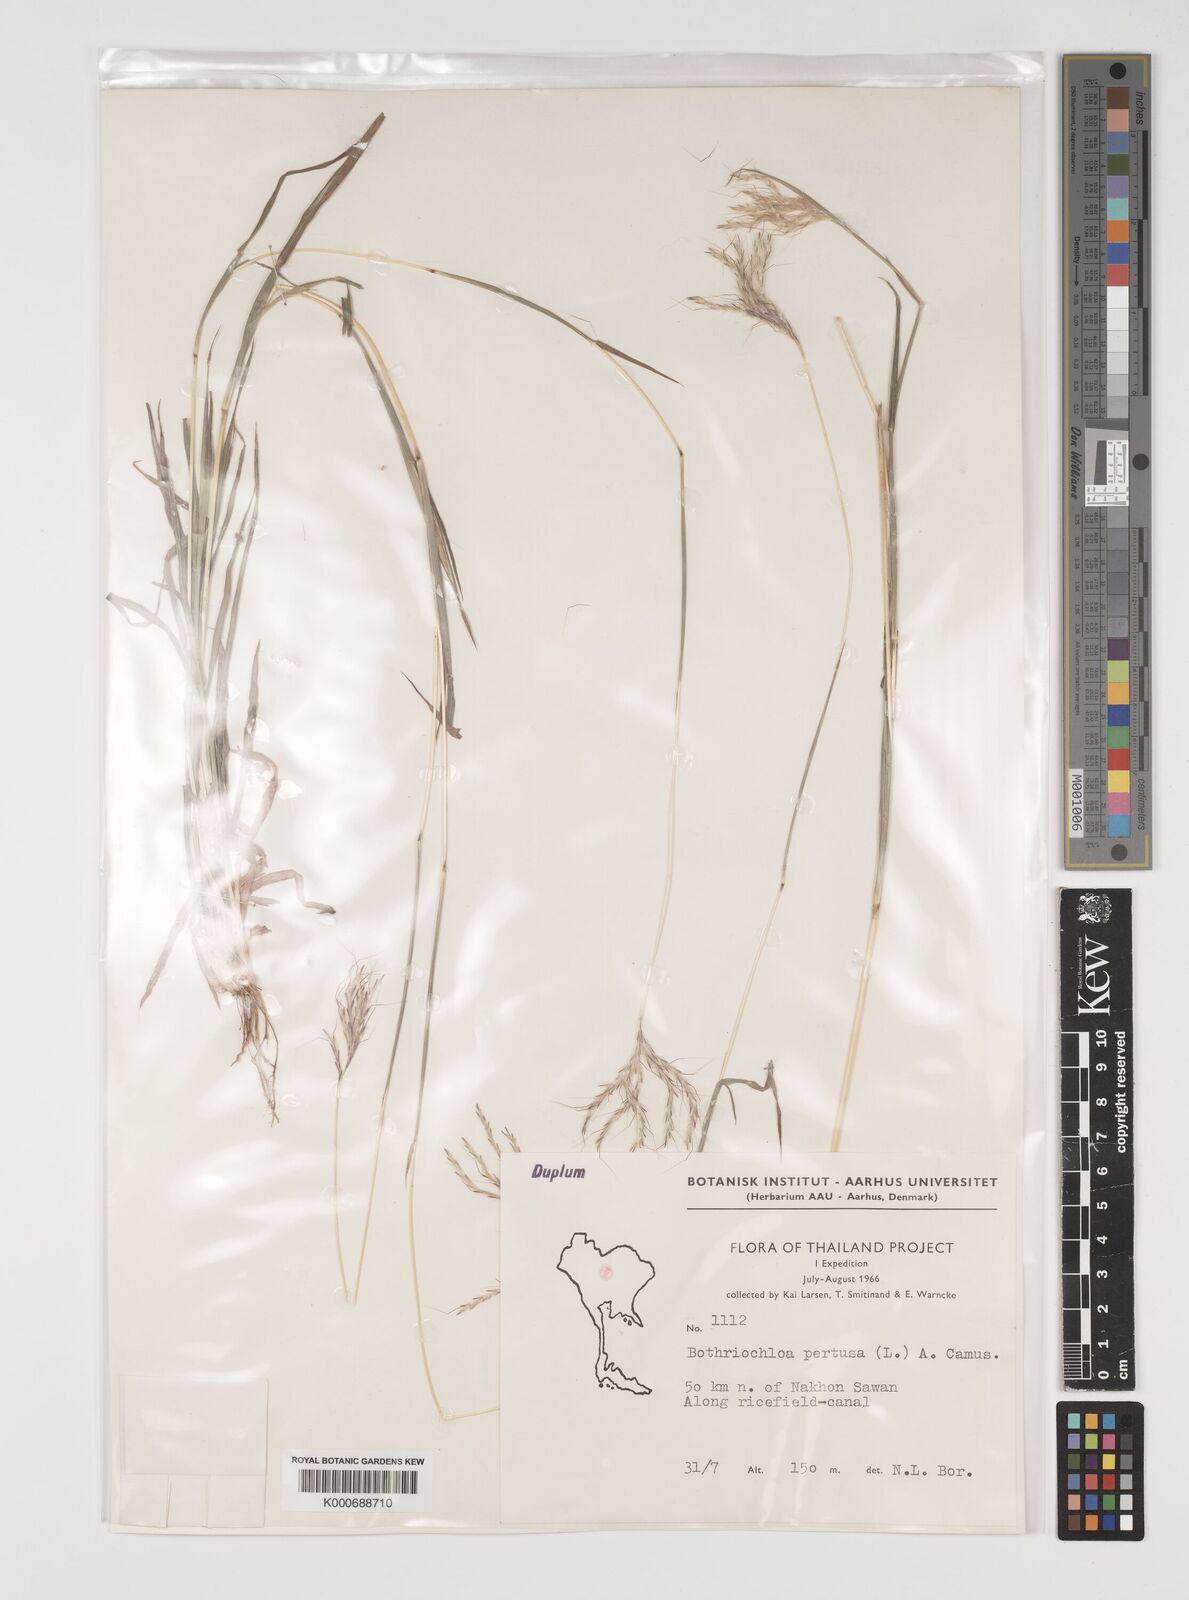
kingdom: Plantae
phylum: Tracheophyta
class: Liliopsida
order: Poales
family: Poaceae
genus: Bothriochloa
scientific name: Bothriochloa pertusa
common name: Pitted beardgrass
